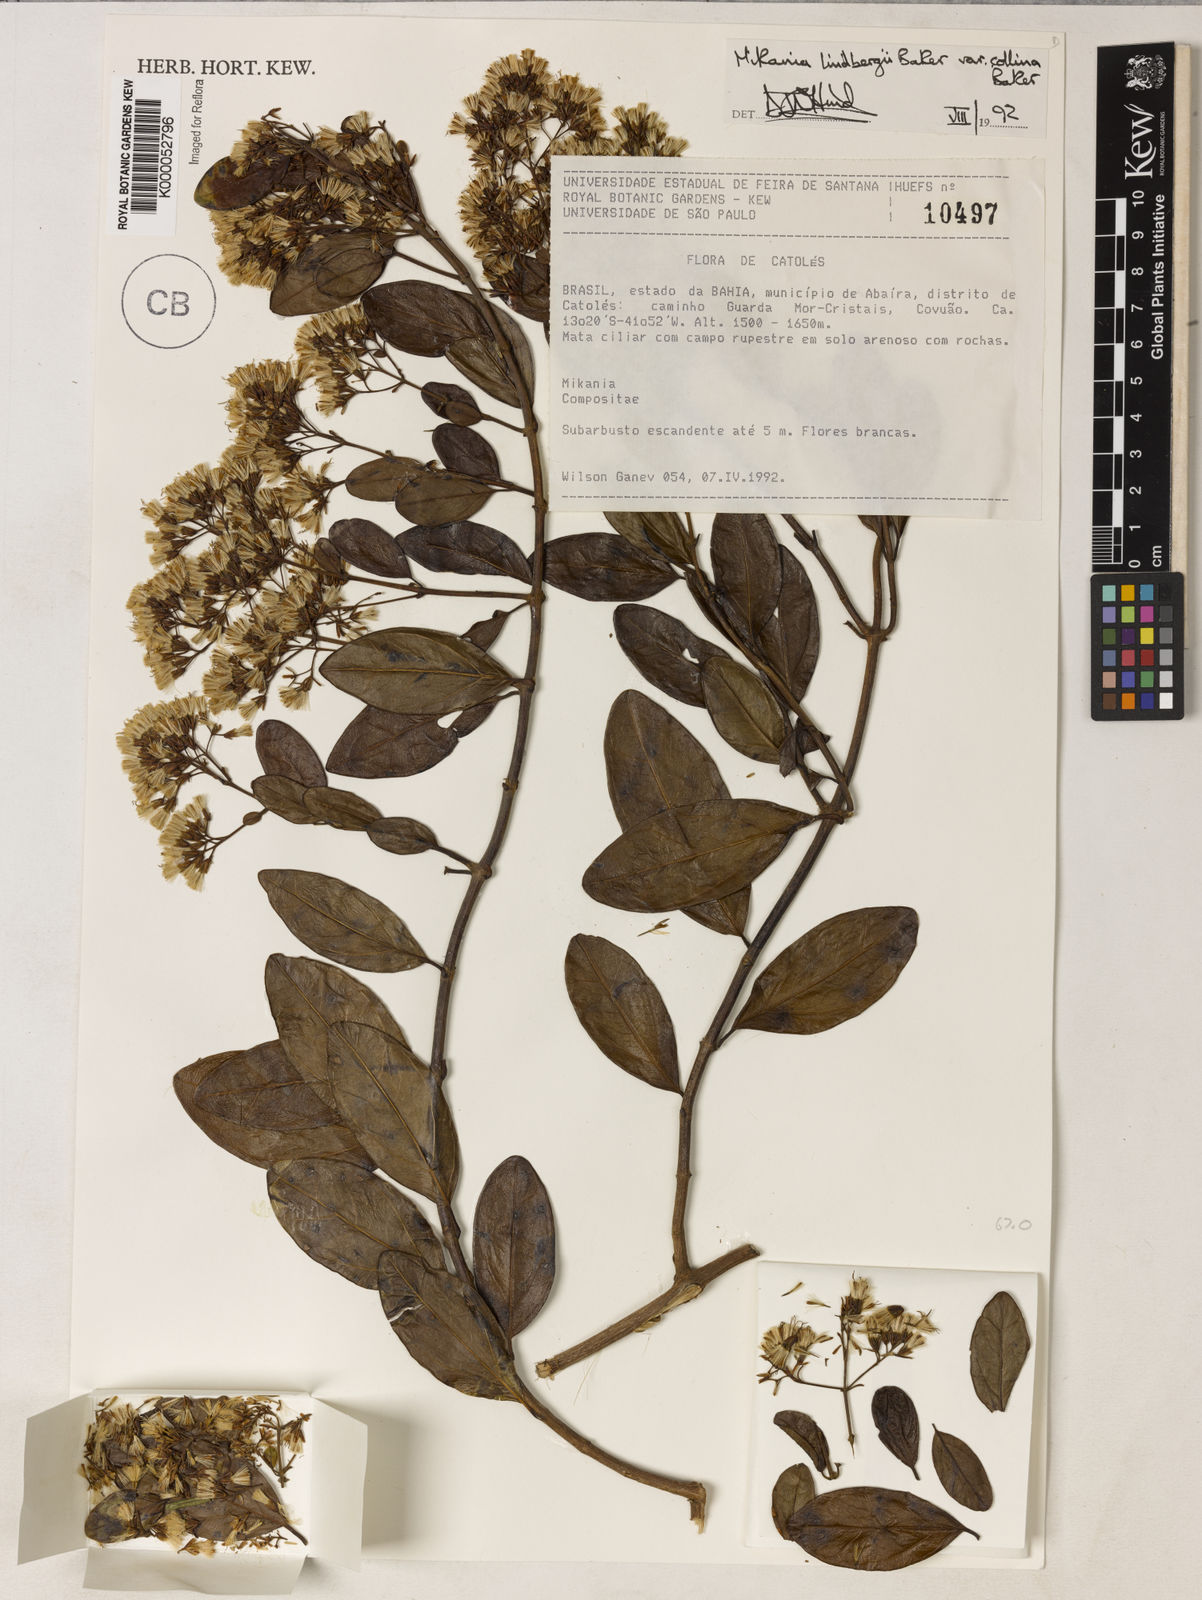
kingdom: Plantae
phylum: Tracheophyta
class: Magnoliopsida
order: Asterales
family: Asteraceae
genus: Mikania
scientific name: Mikania lindbergii
